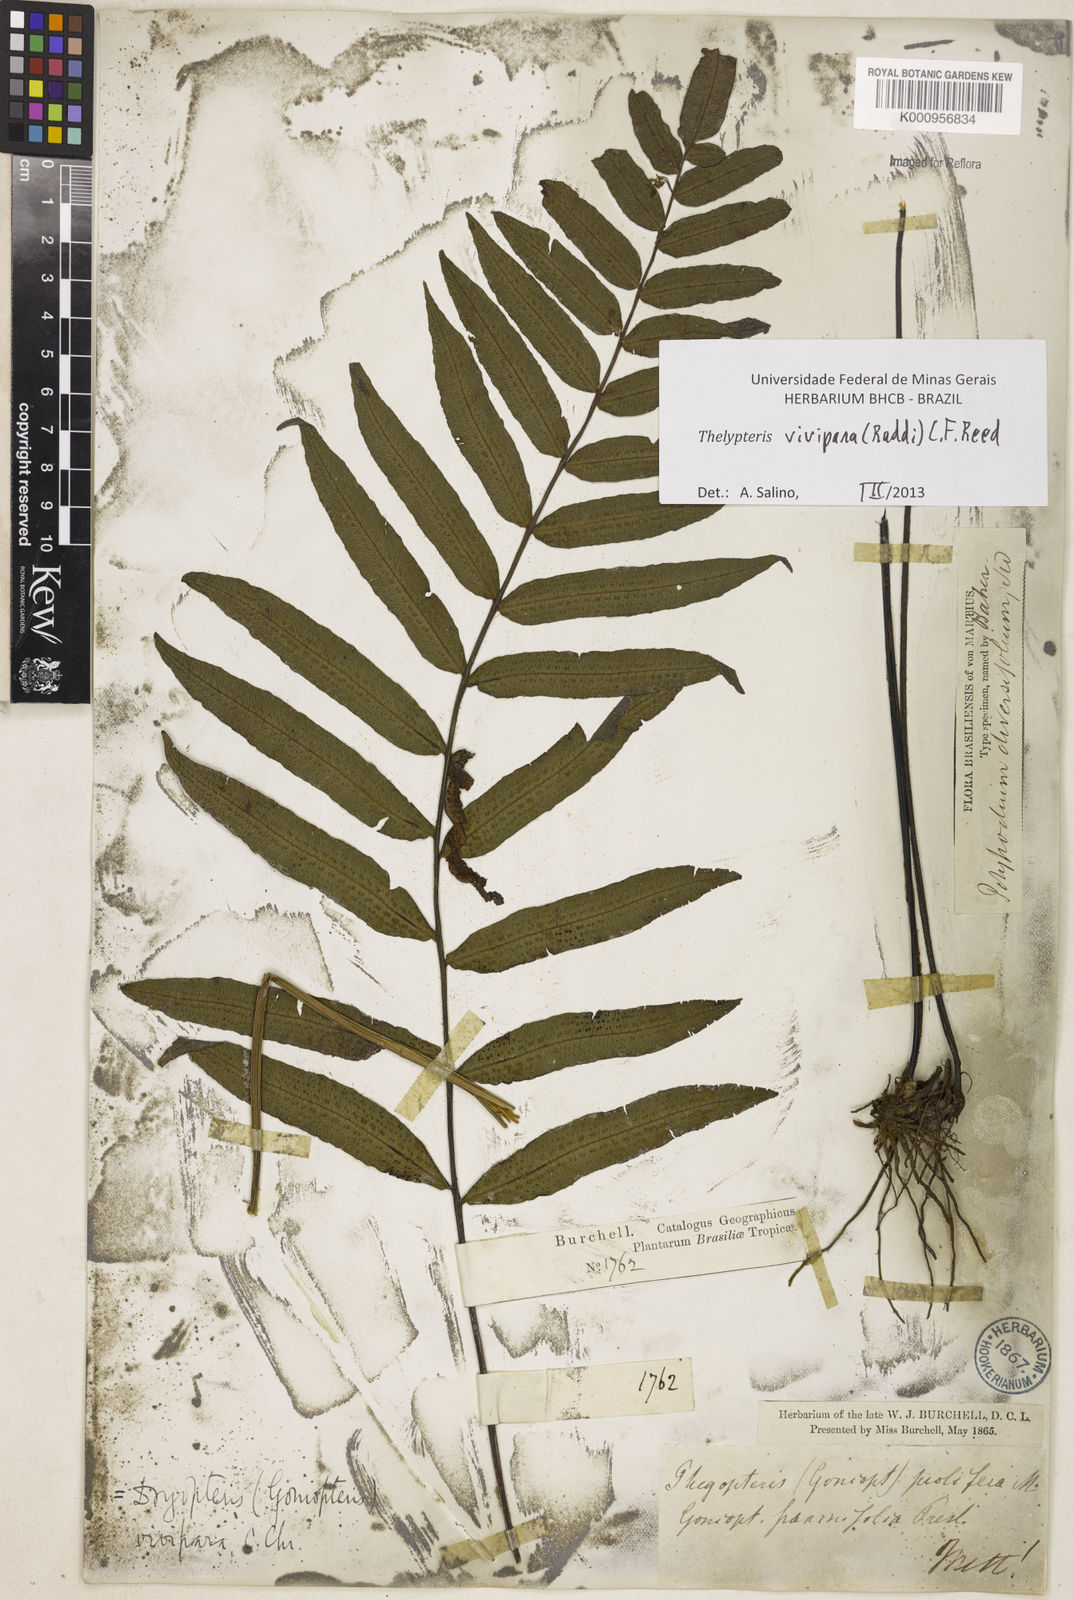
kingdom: Plantae
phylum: Tracheophyta
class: Polypodiopsida
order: Polypodiales
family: Thelypteridaceae
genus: Goniopteris
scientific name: Goniopteris vivipara
